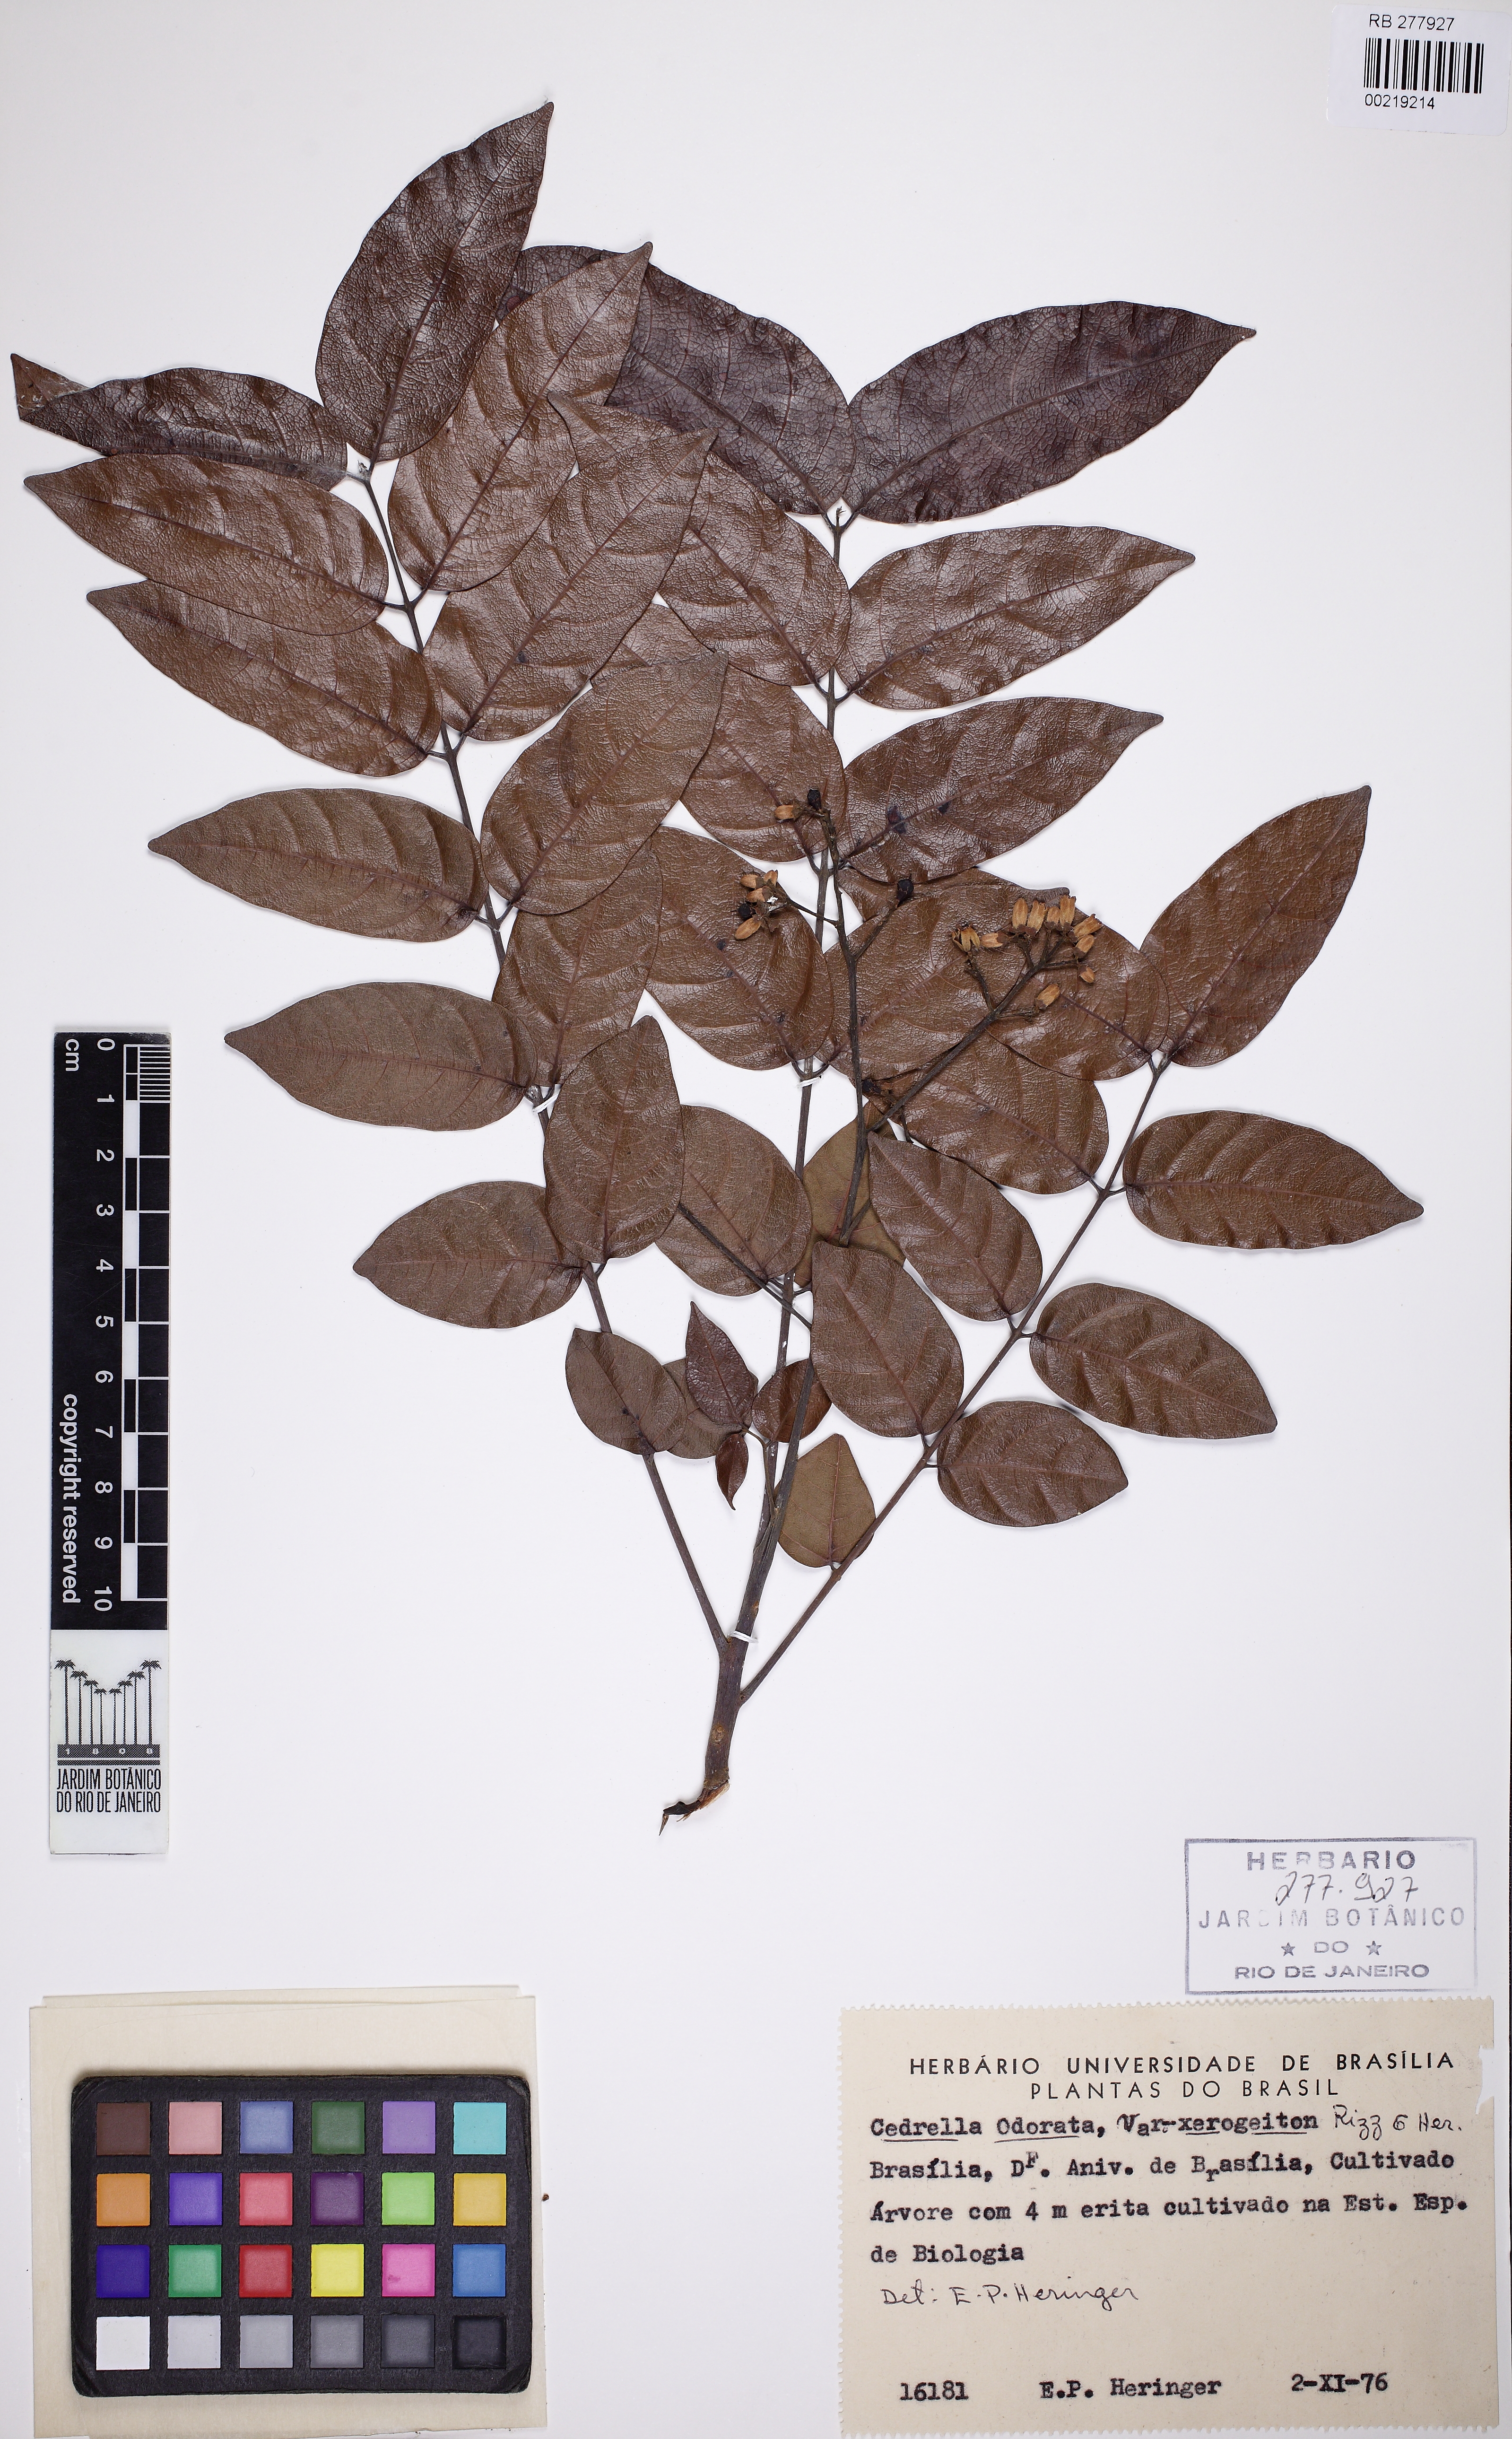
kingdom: Plantae
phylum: Tracheophyta
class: Magnoliopsida
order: Sapindales
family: Meliaceae
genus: Cedrela
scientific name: Cedrela odorata
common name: Red cedar
